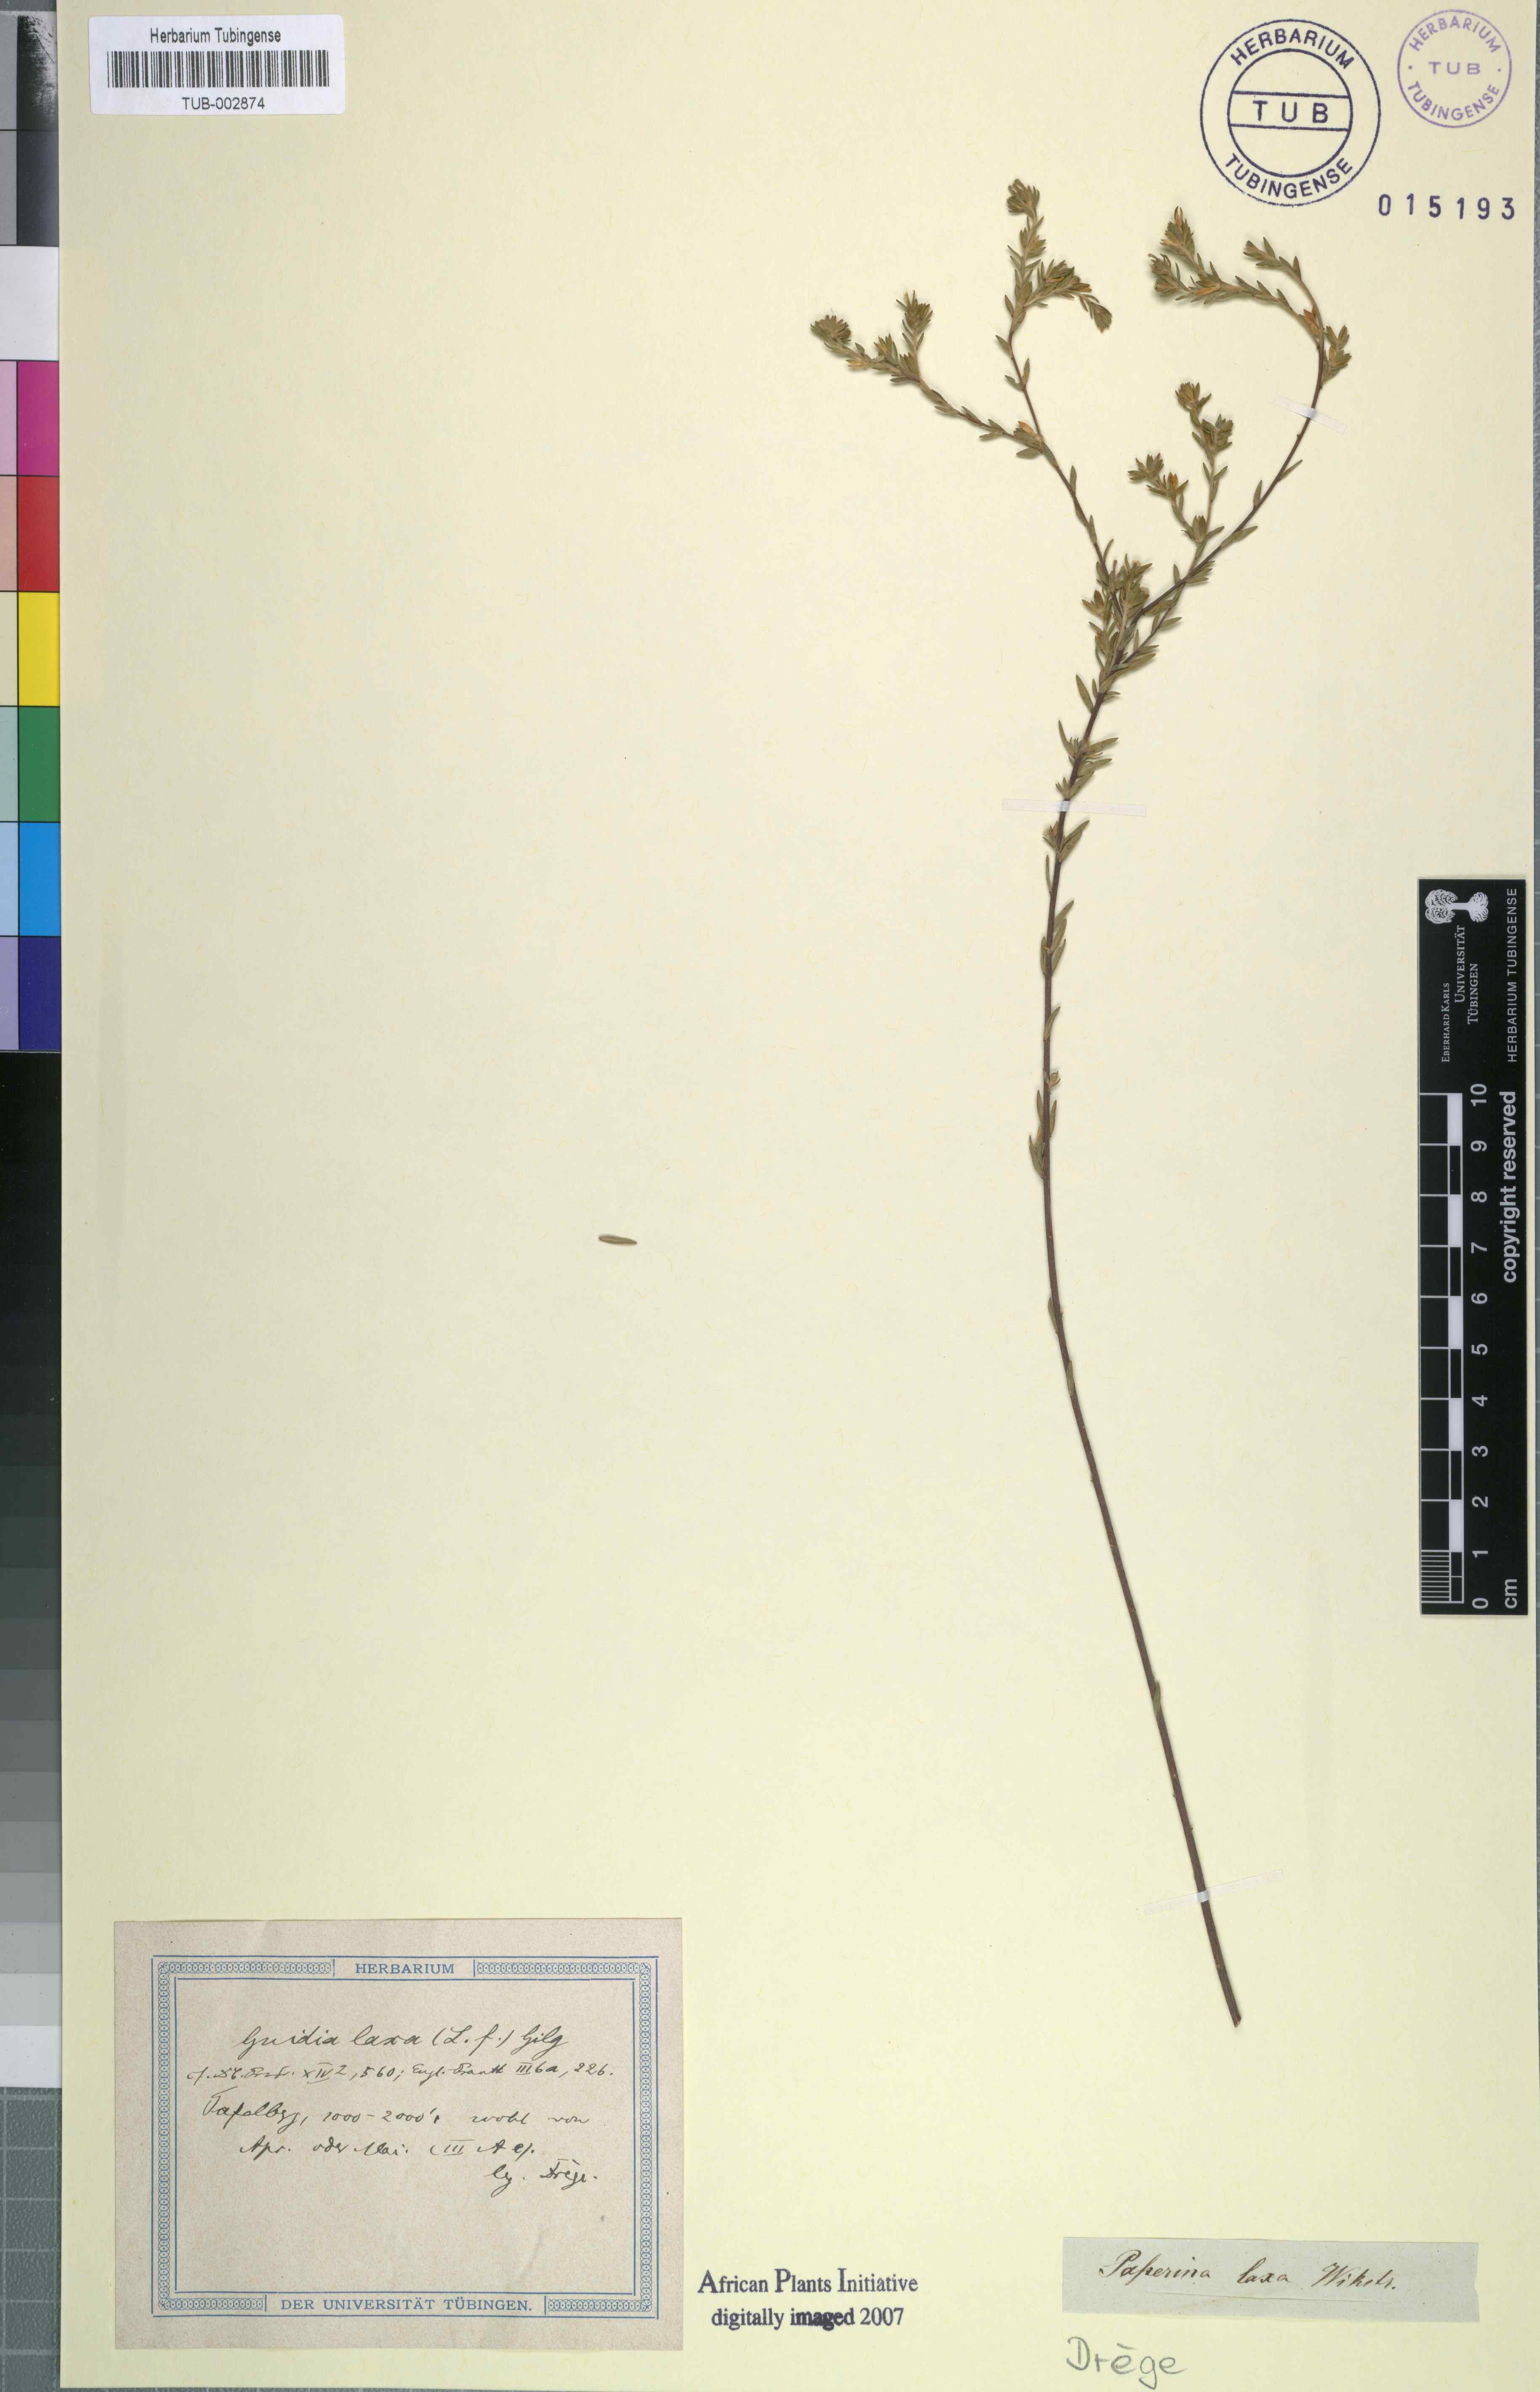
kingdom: Plantae
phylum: Tracheophyta
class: Magnoliopsida
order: Malvales
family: Thymelaeaceae
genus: Gnidia
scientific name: Gnidia laxa
